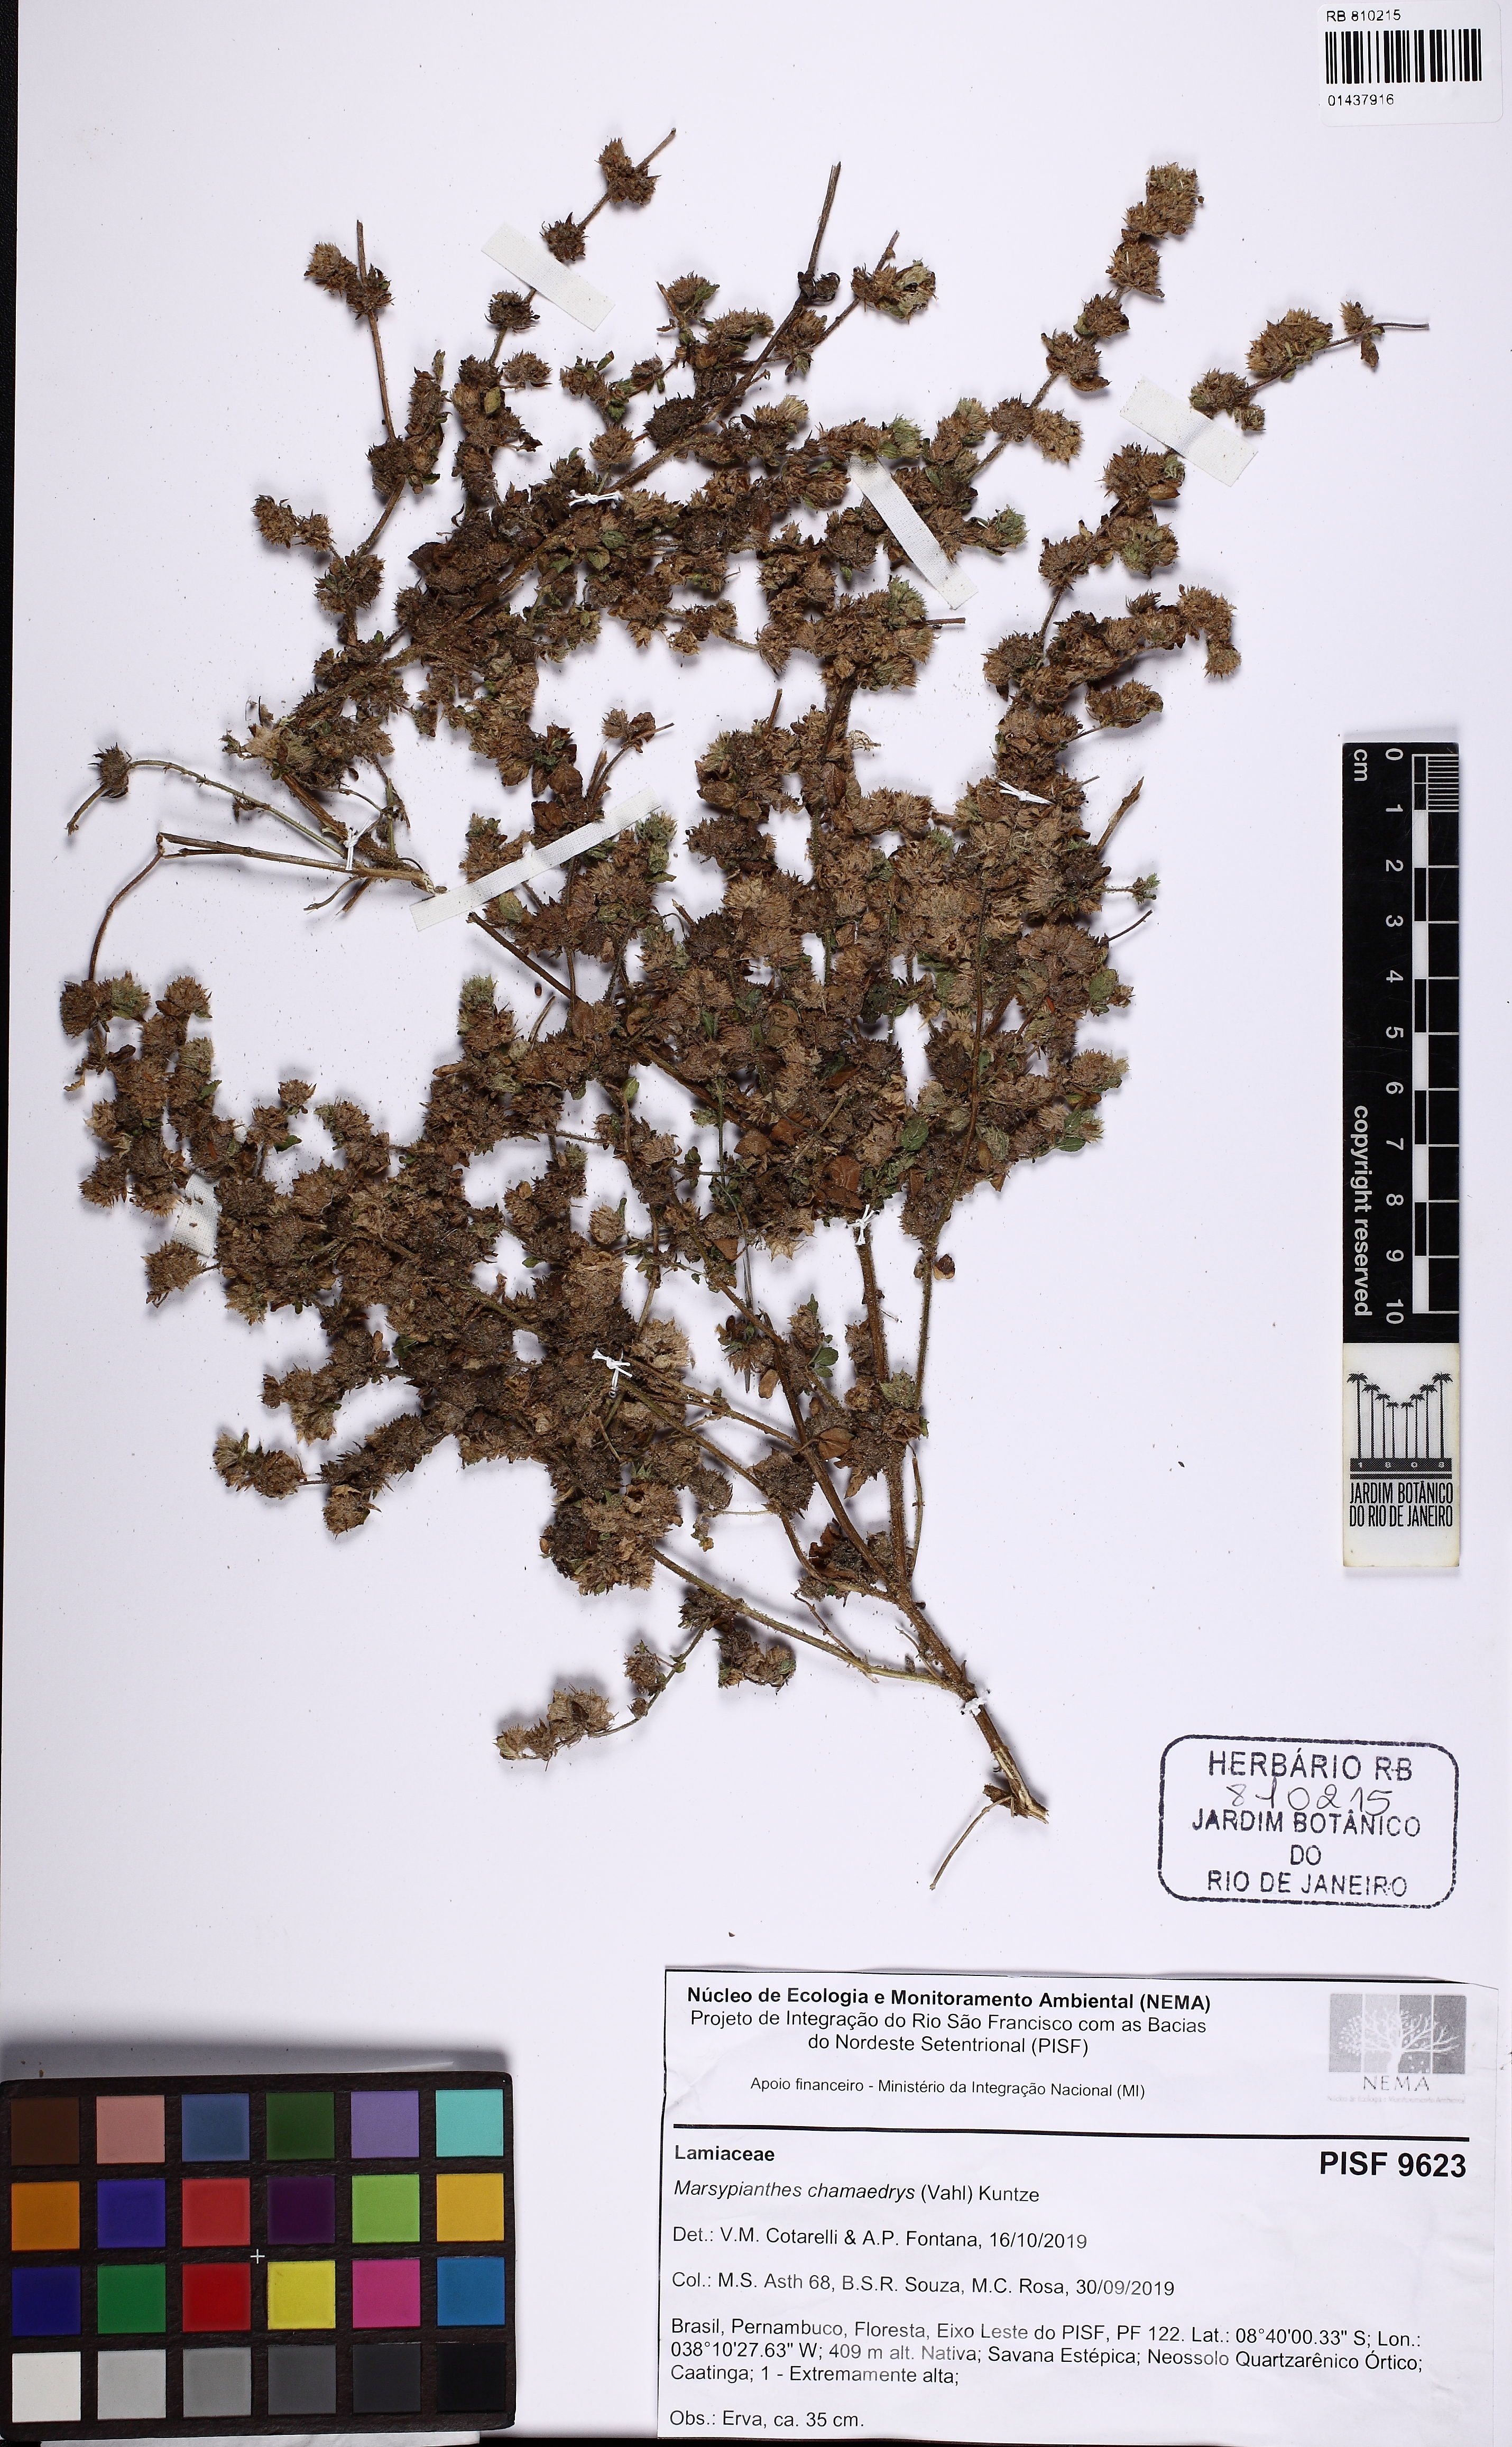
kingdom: Plantae
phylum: Tracheophyta
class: Magnoliopsida
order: Lamiales
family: Lamiaceae
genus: Marsypianthes
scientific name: Marsypianthes chamaedrys
